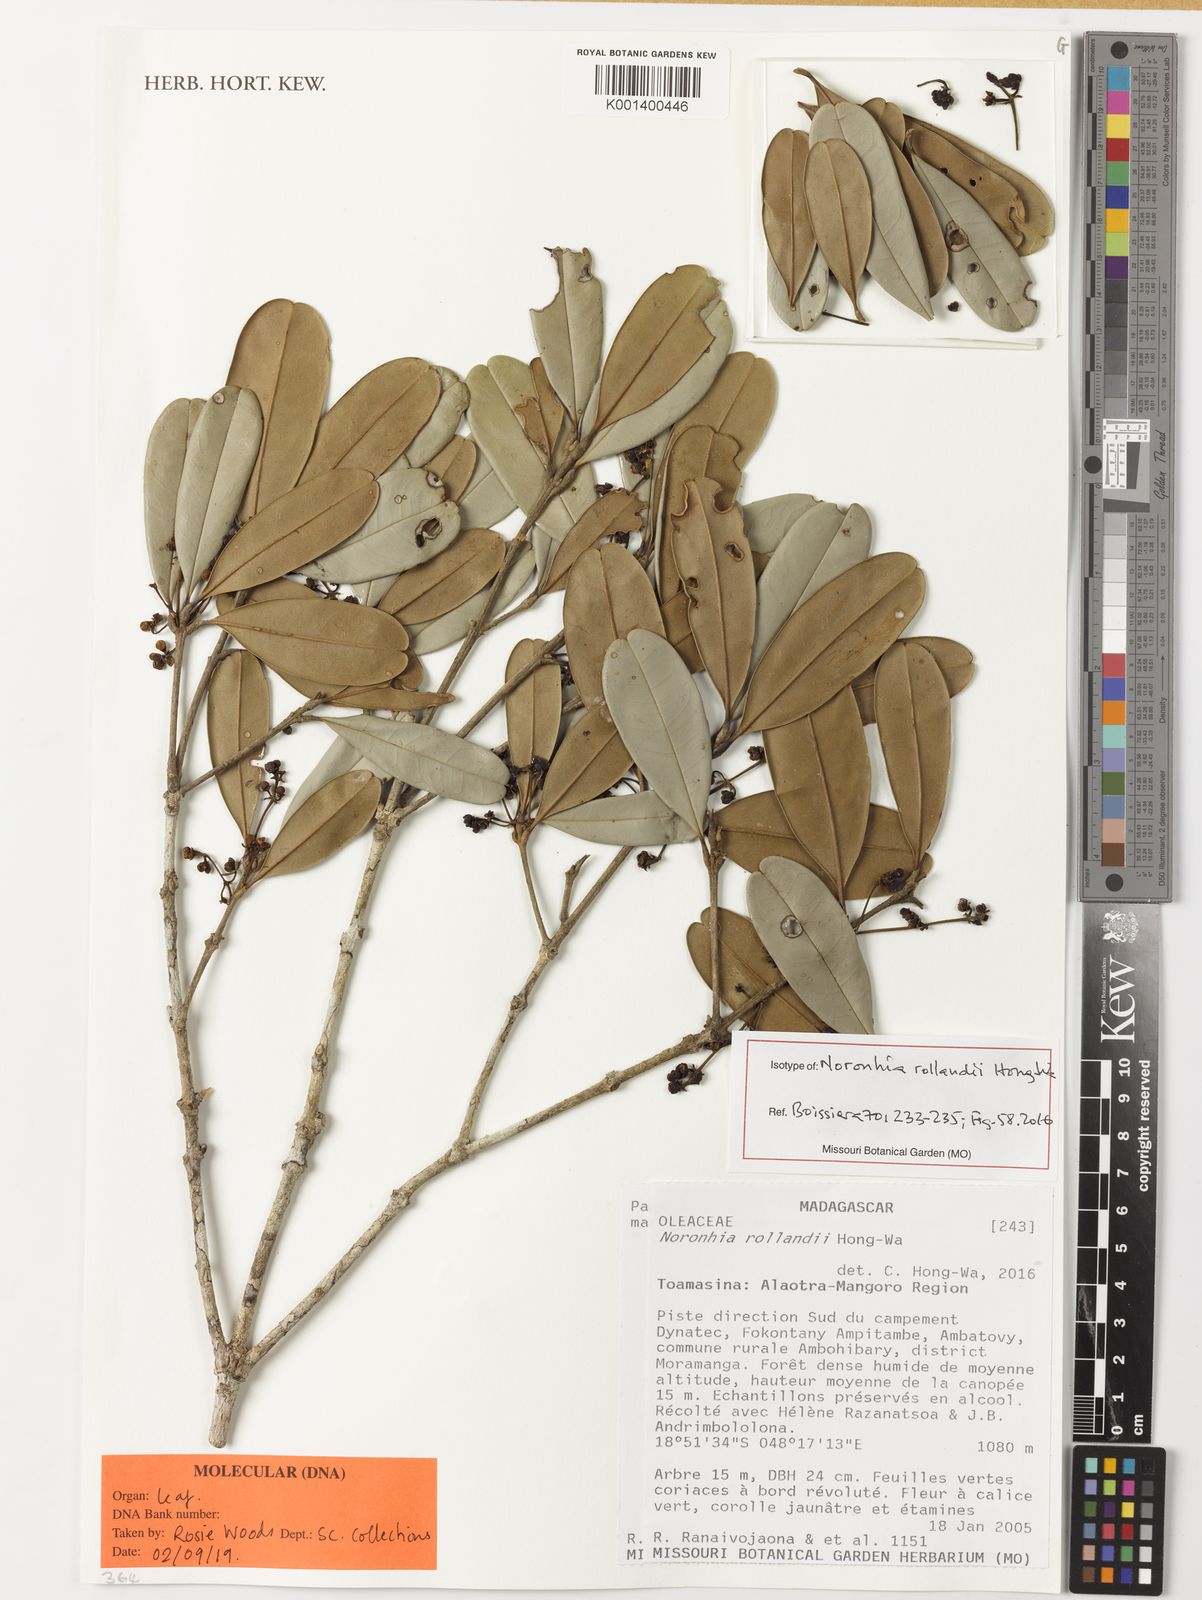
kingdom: Plantae
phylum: Tracheophyta
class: Magnoliopsida
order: Lamiales
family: Oleaceae
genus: Noronhia
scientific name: Noronhia rollandii
